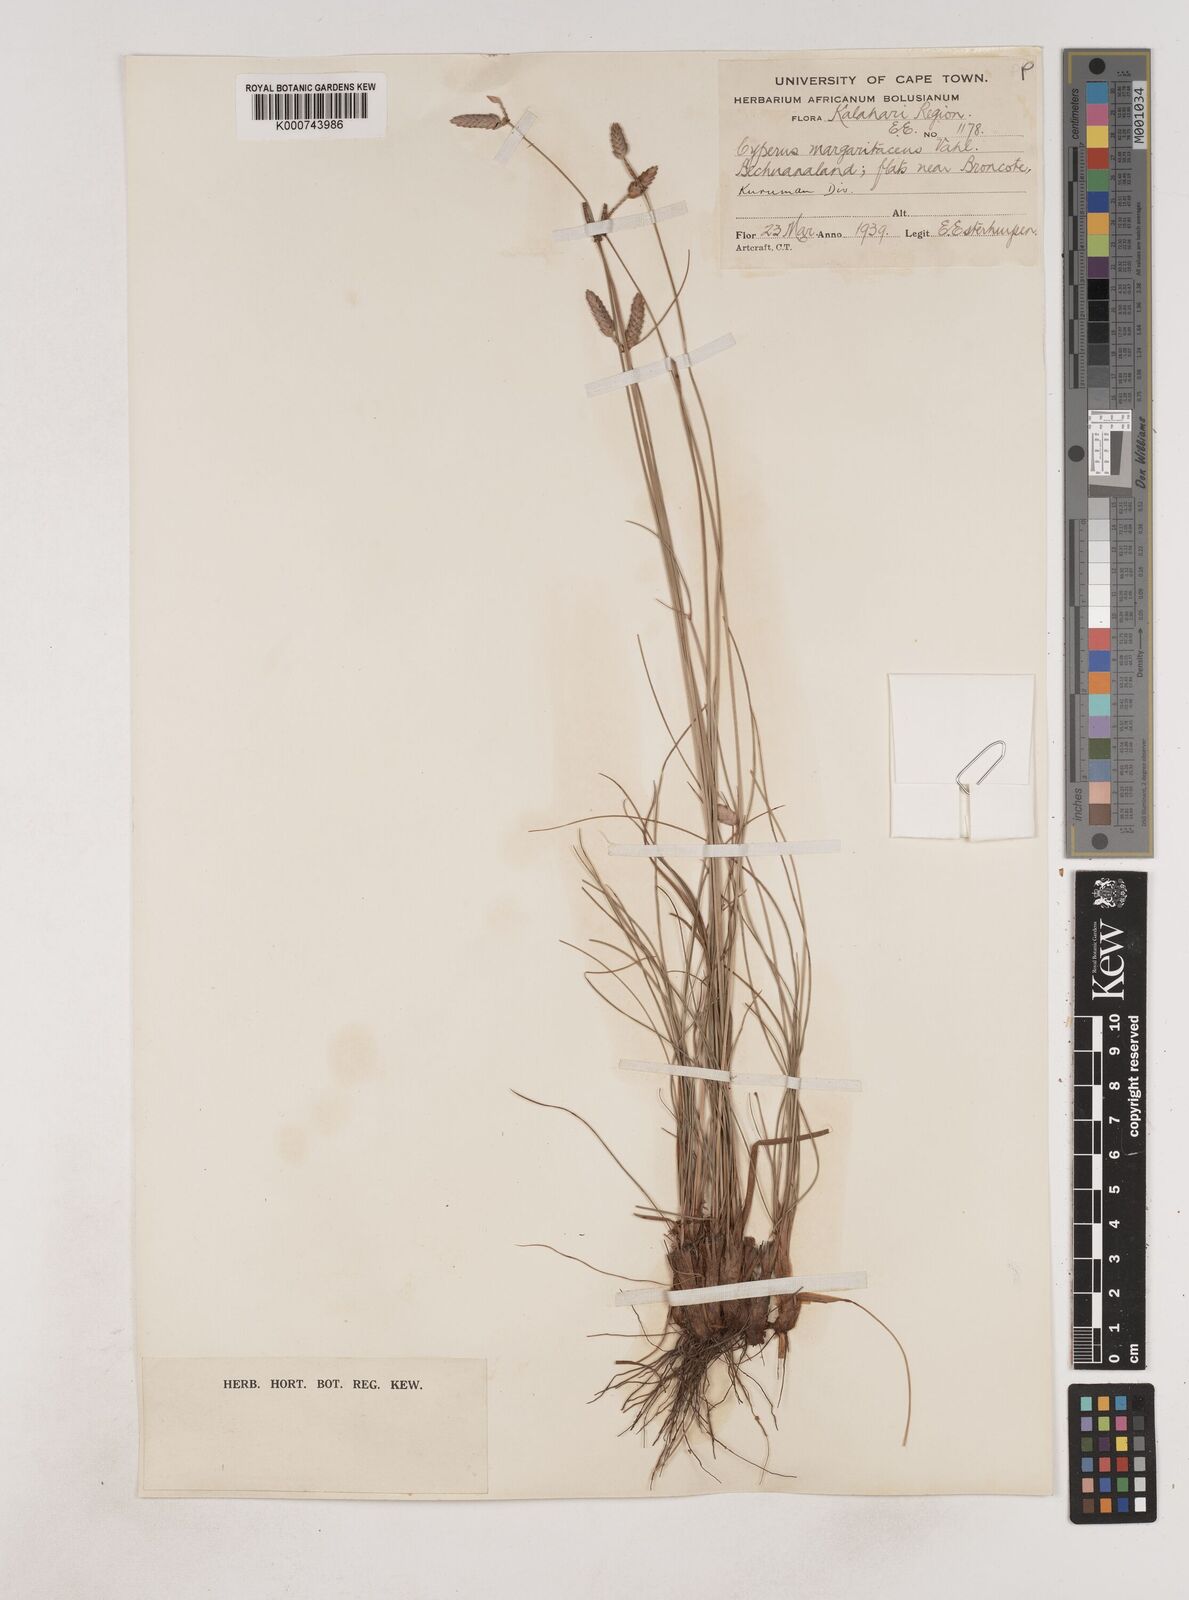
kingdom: Plantae
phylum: Tracheophyta
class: Liliopsida
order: Poales
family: Cyperaceae
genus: Cyperus
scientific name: Cyperus margaritaceus
